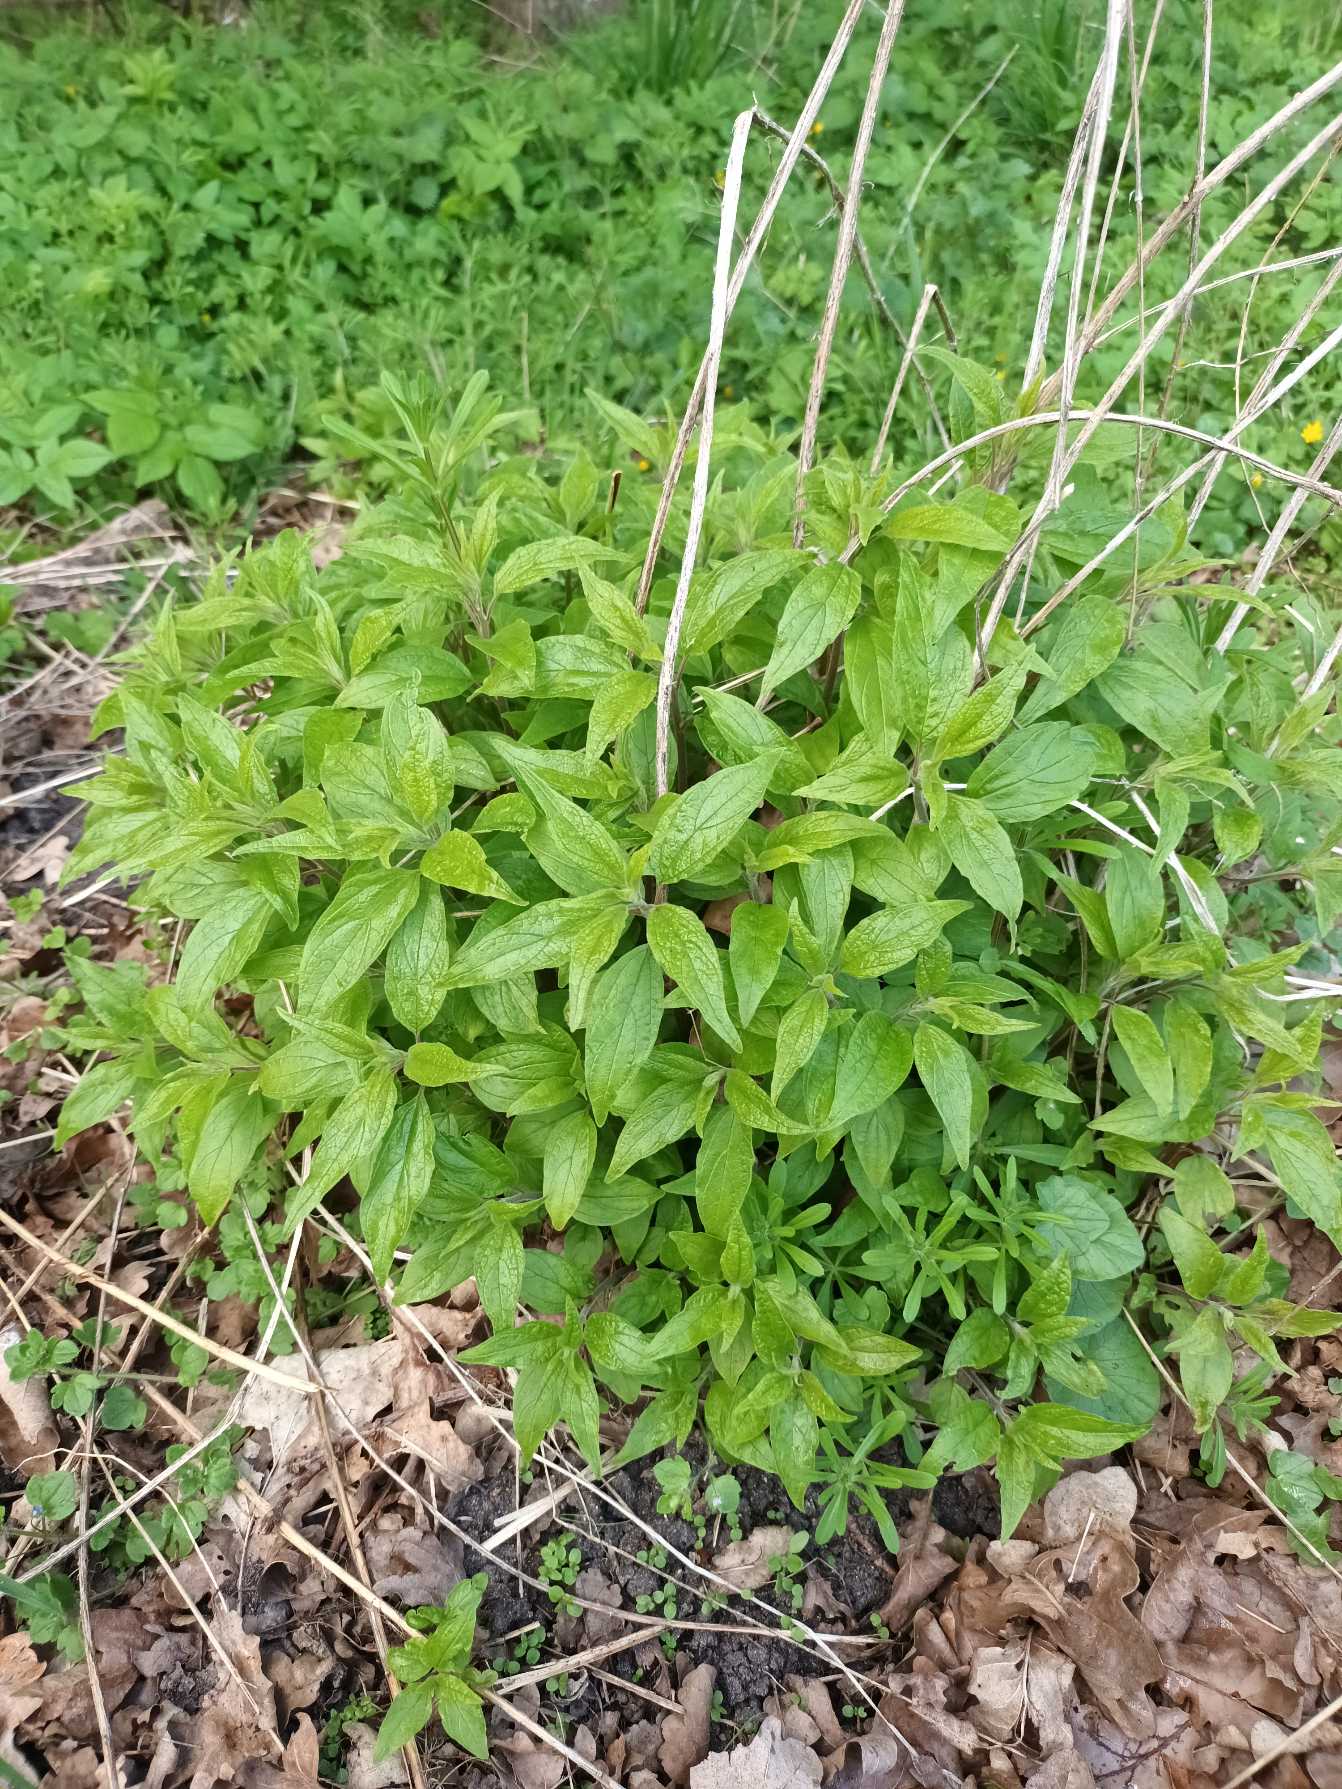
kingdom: Plantae
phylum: Tracheophyta
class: Magnoliopsida
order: Rosales
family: Urticaceae
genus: Parietaria
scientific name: Parietaria officinalis
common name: Almindelig springknap
